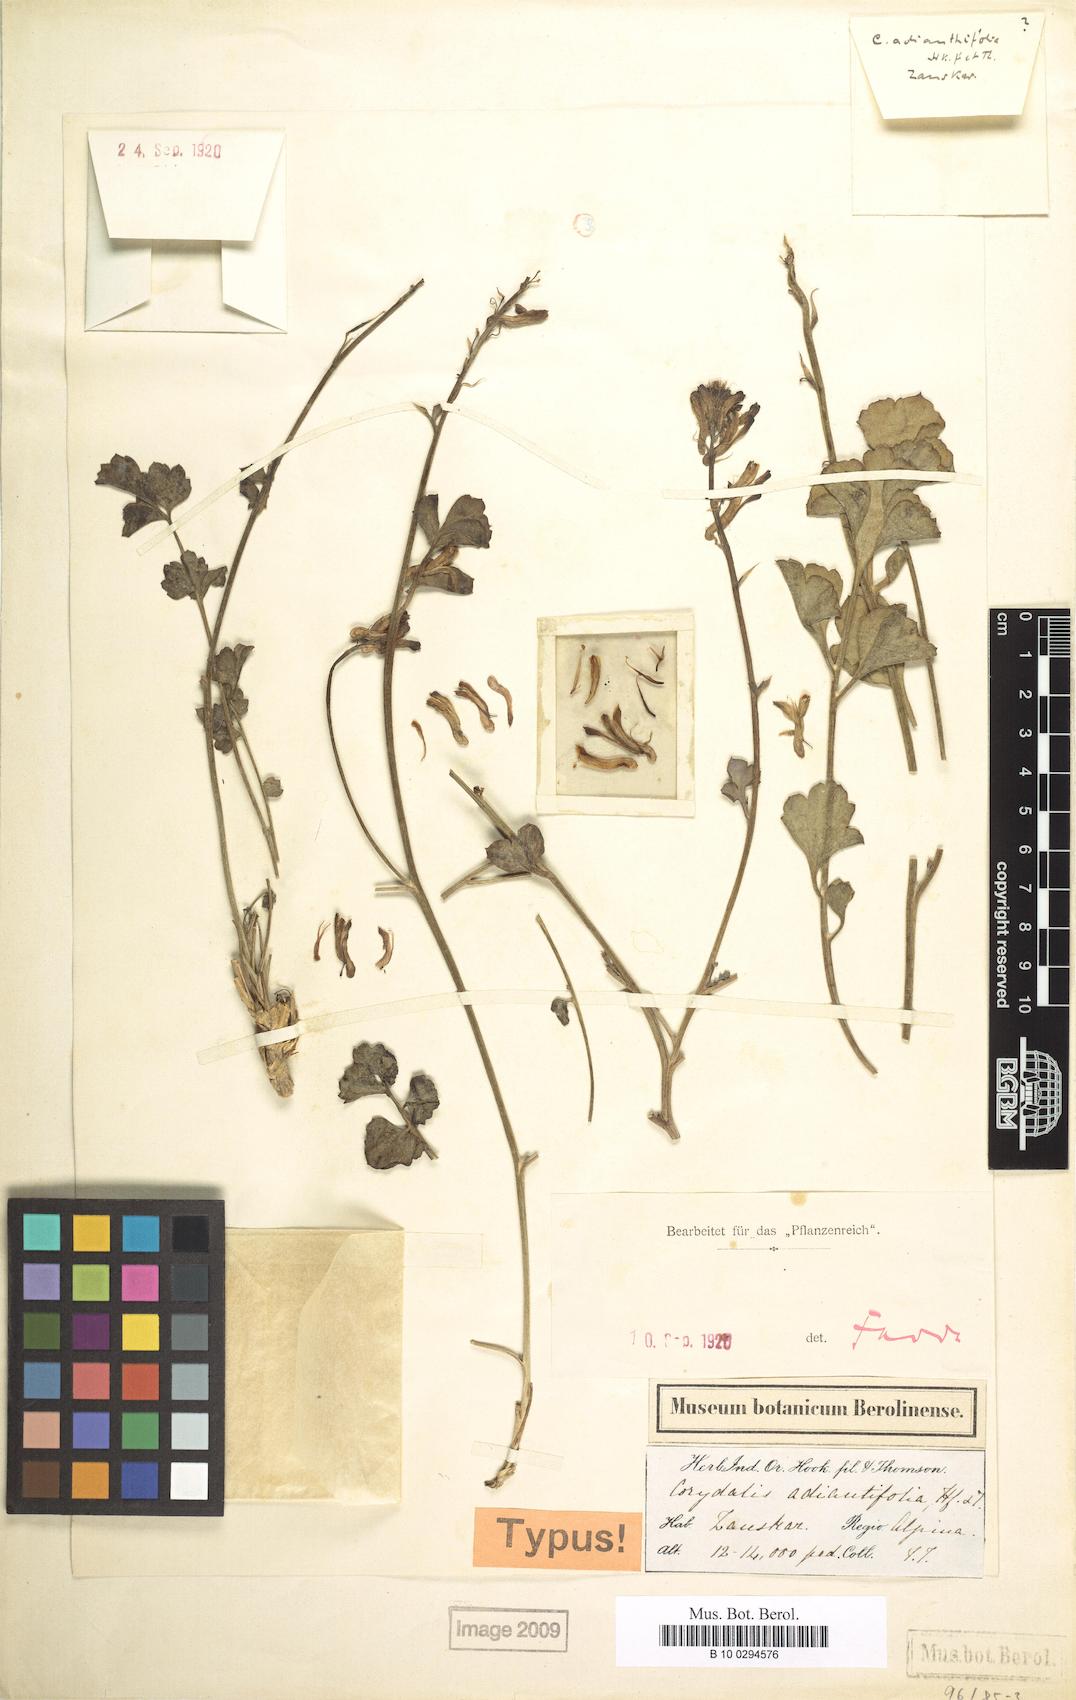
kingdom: Plantae
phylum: Tracheophyta
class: Magnoliopsida
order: Ranunculales
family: Papaveraceae
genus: Corydalis
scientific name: Corydalis adiantifolia
